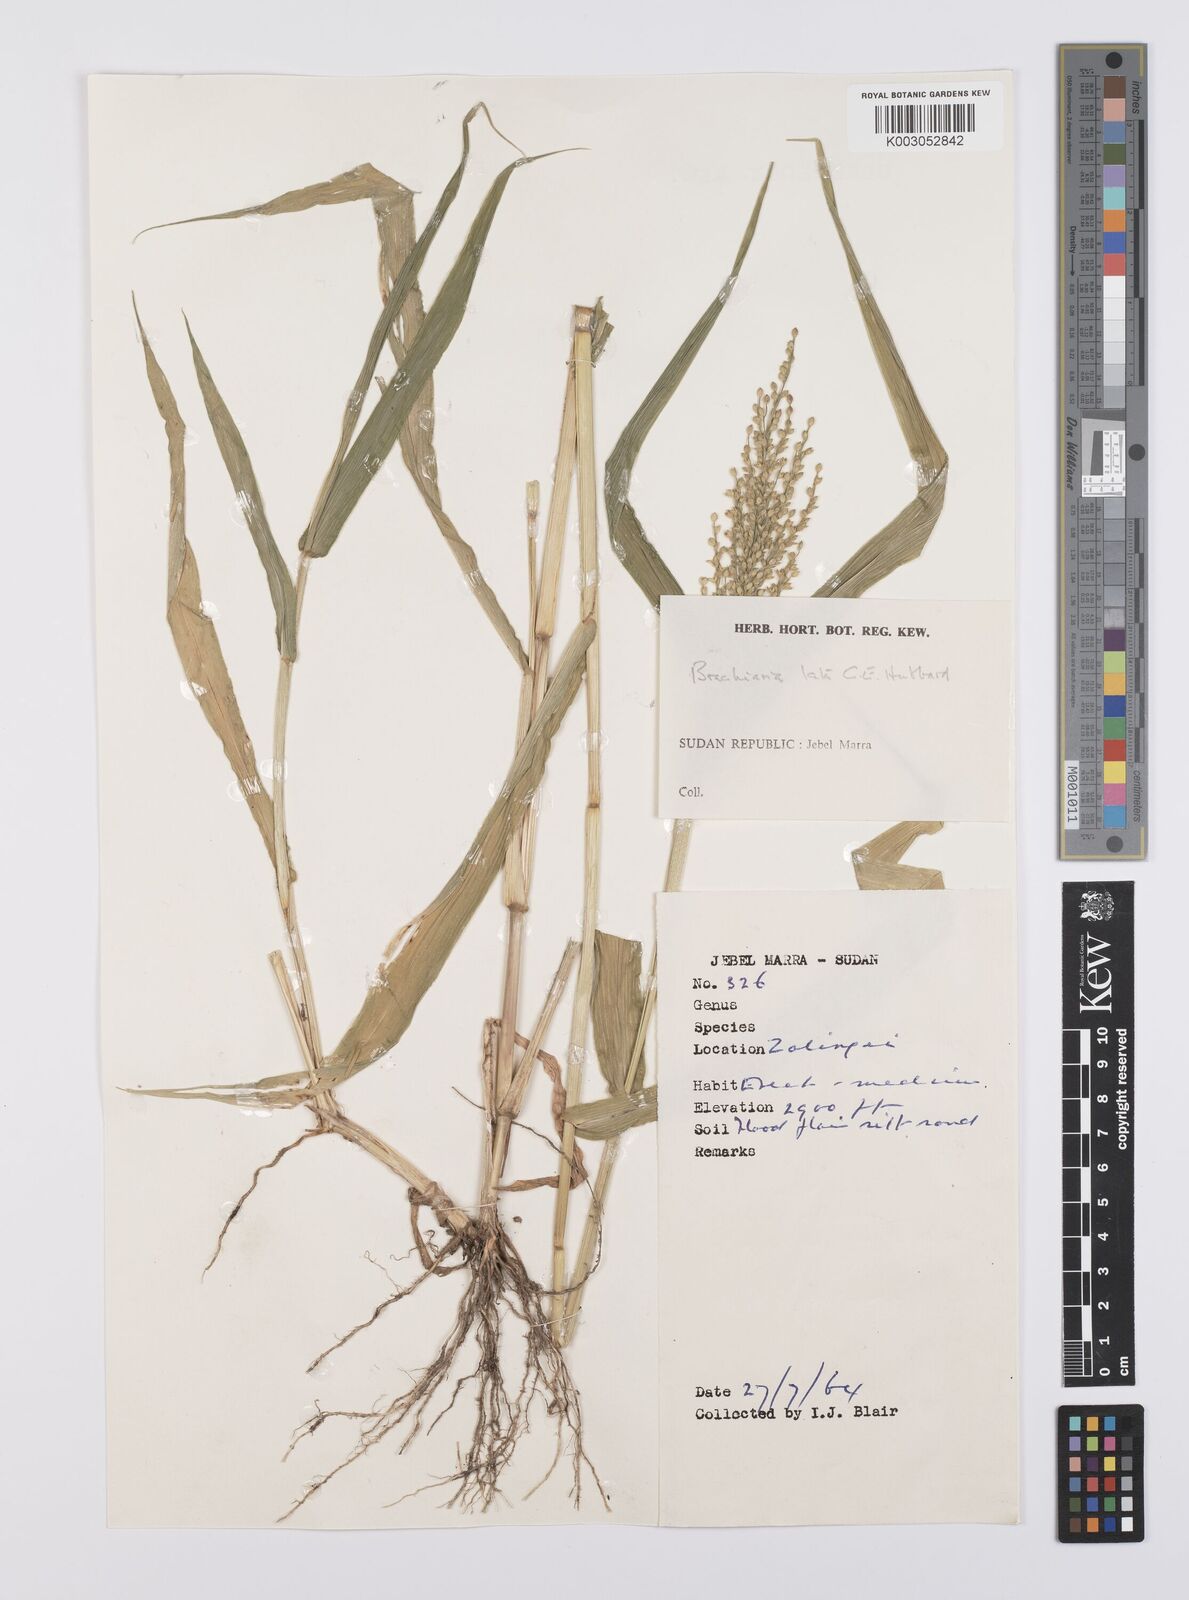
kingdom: Plantae
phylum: Tracheophyta
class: Liliopsida
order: Poales
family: Poaceae
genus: Urochloa
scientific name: Urochloa lata
